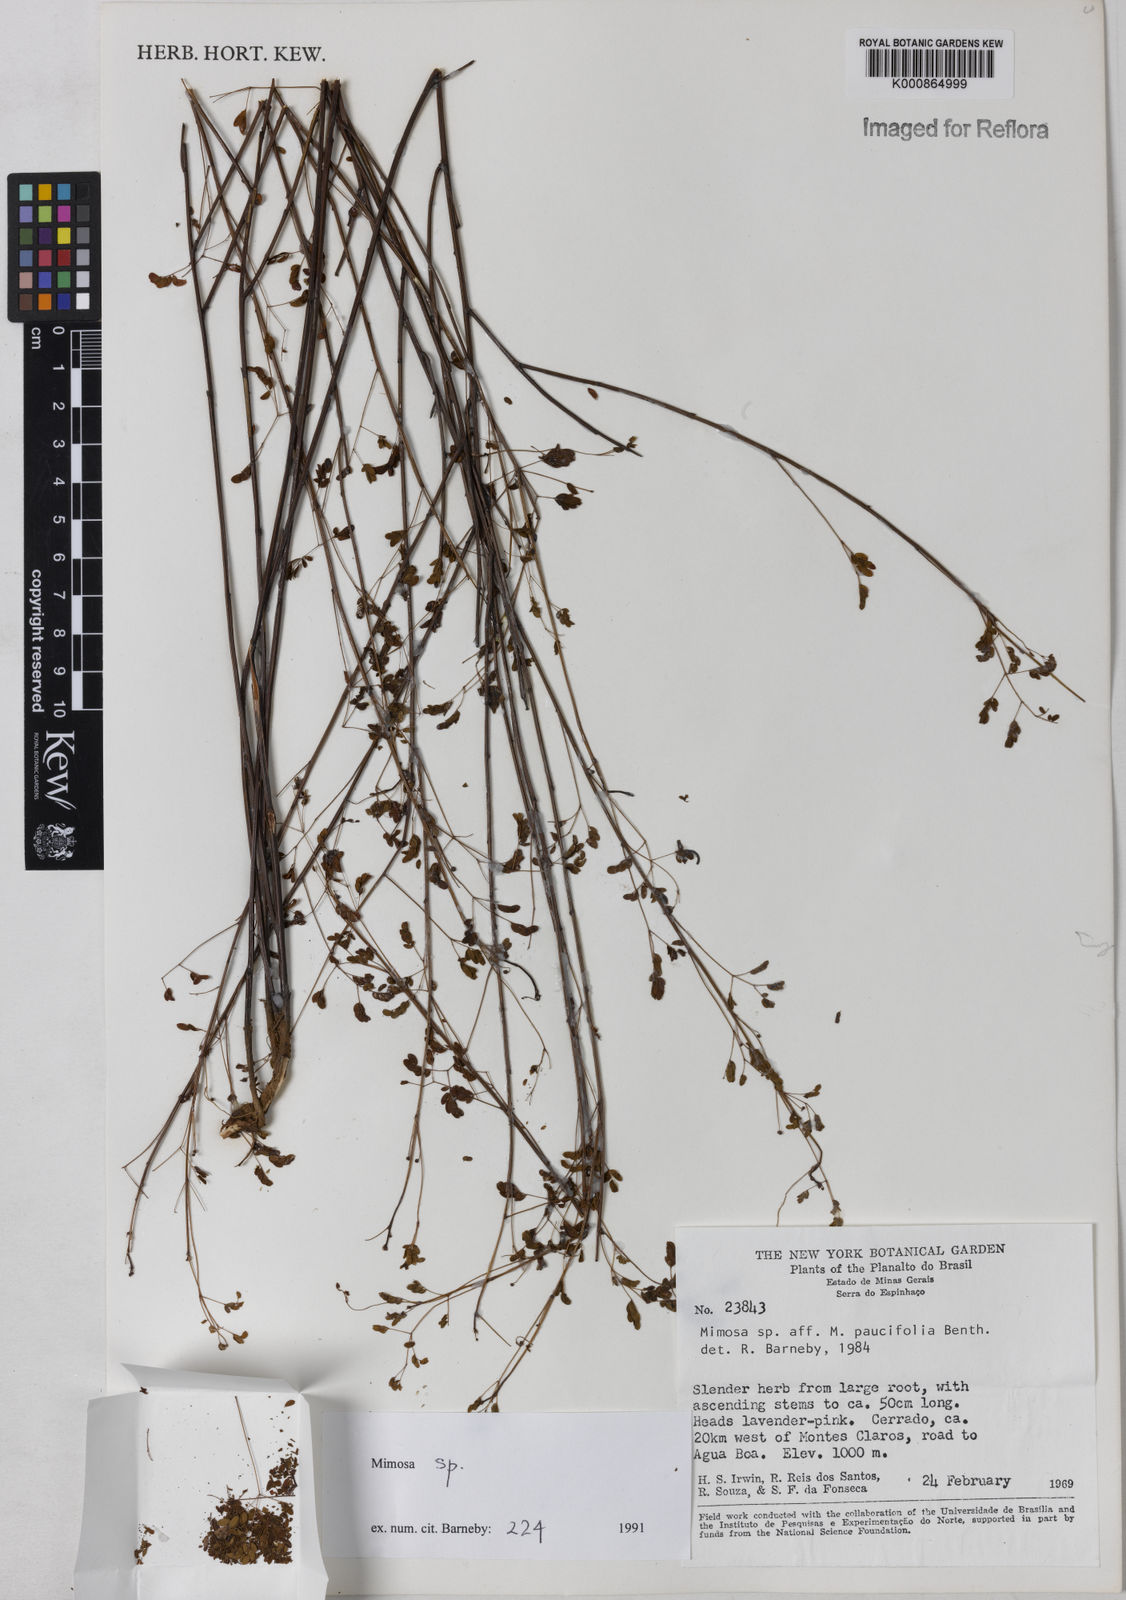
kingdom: Plantae
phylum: Tracheophyta
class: Magnoliopsida
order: Fabales
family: Fabaceae
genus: Mimosa
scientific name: Mimosa
